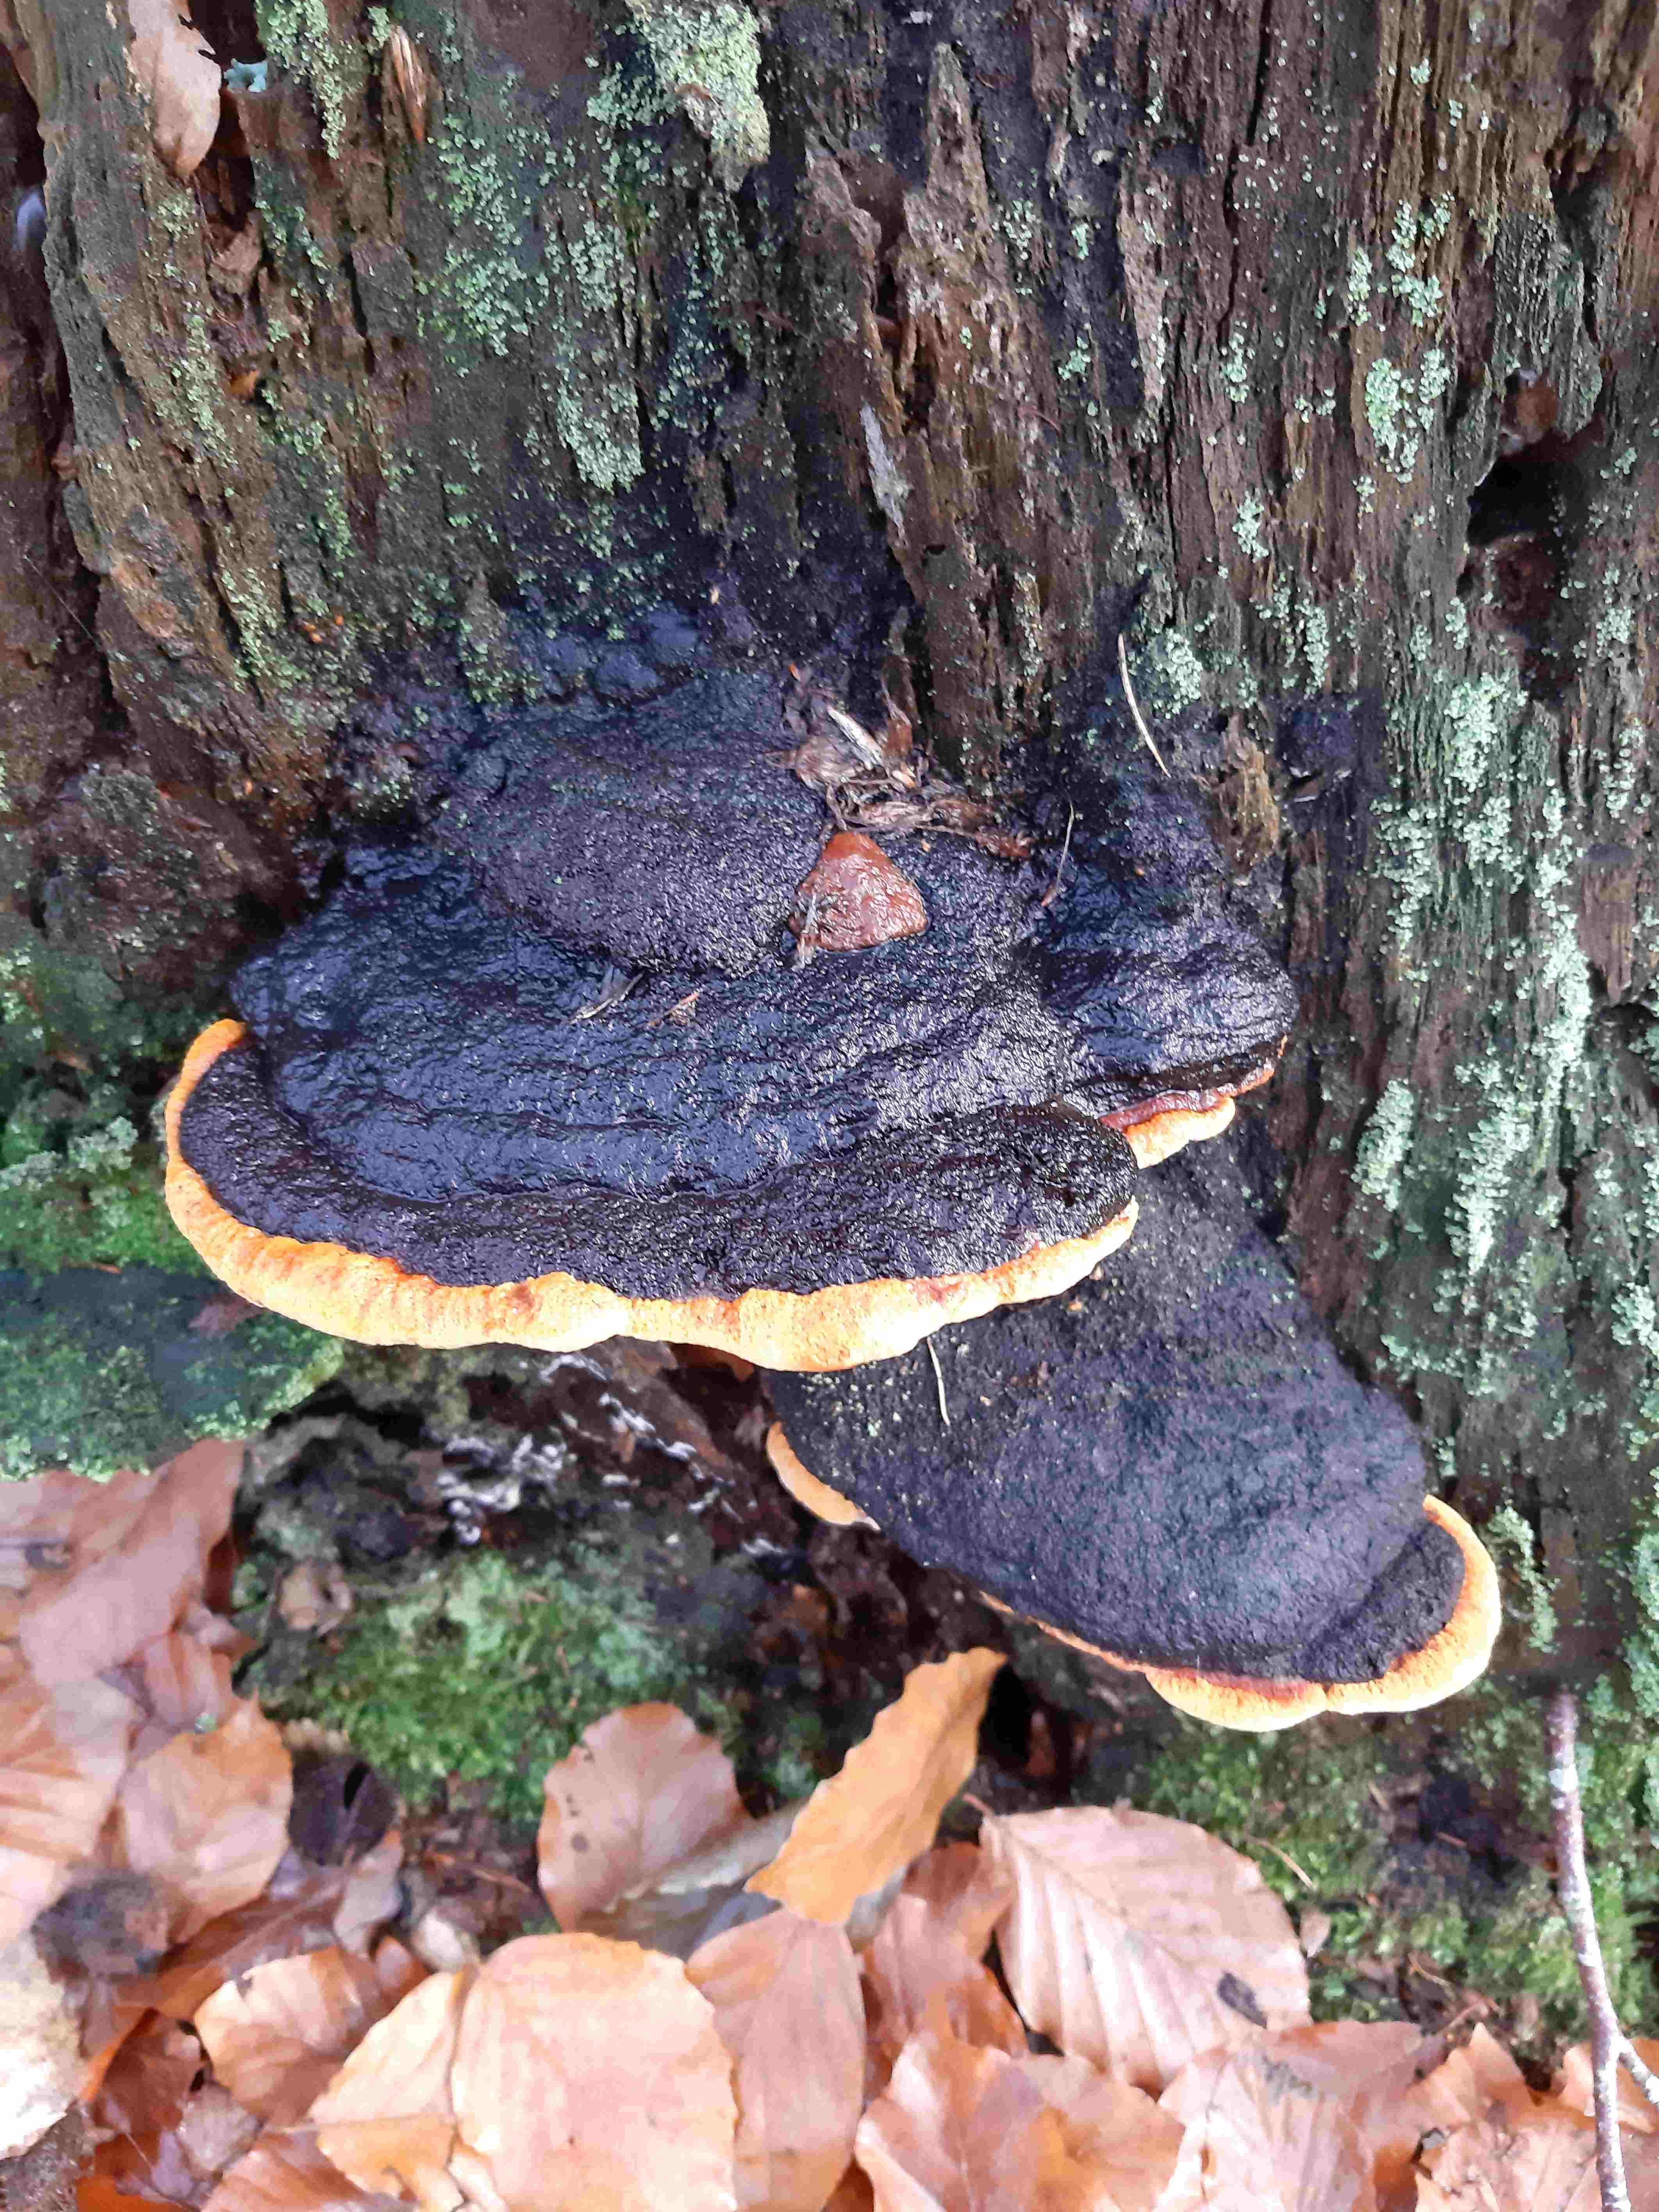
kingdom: Fungi
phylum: Basidiomycota
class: Agaricomycetes
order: Polyporales
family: Fomitopsidaceae
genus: Fomitopsis
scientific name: Fomitopsis pinicola
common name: randbæltet hovporesvamp
